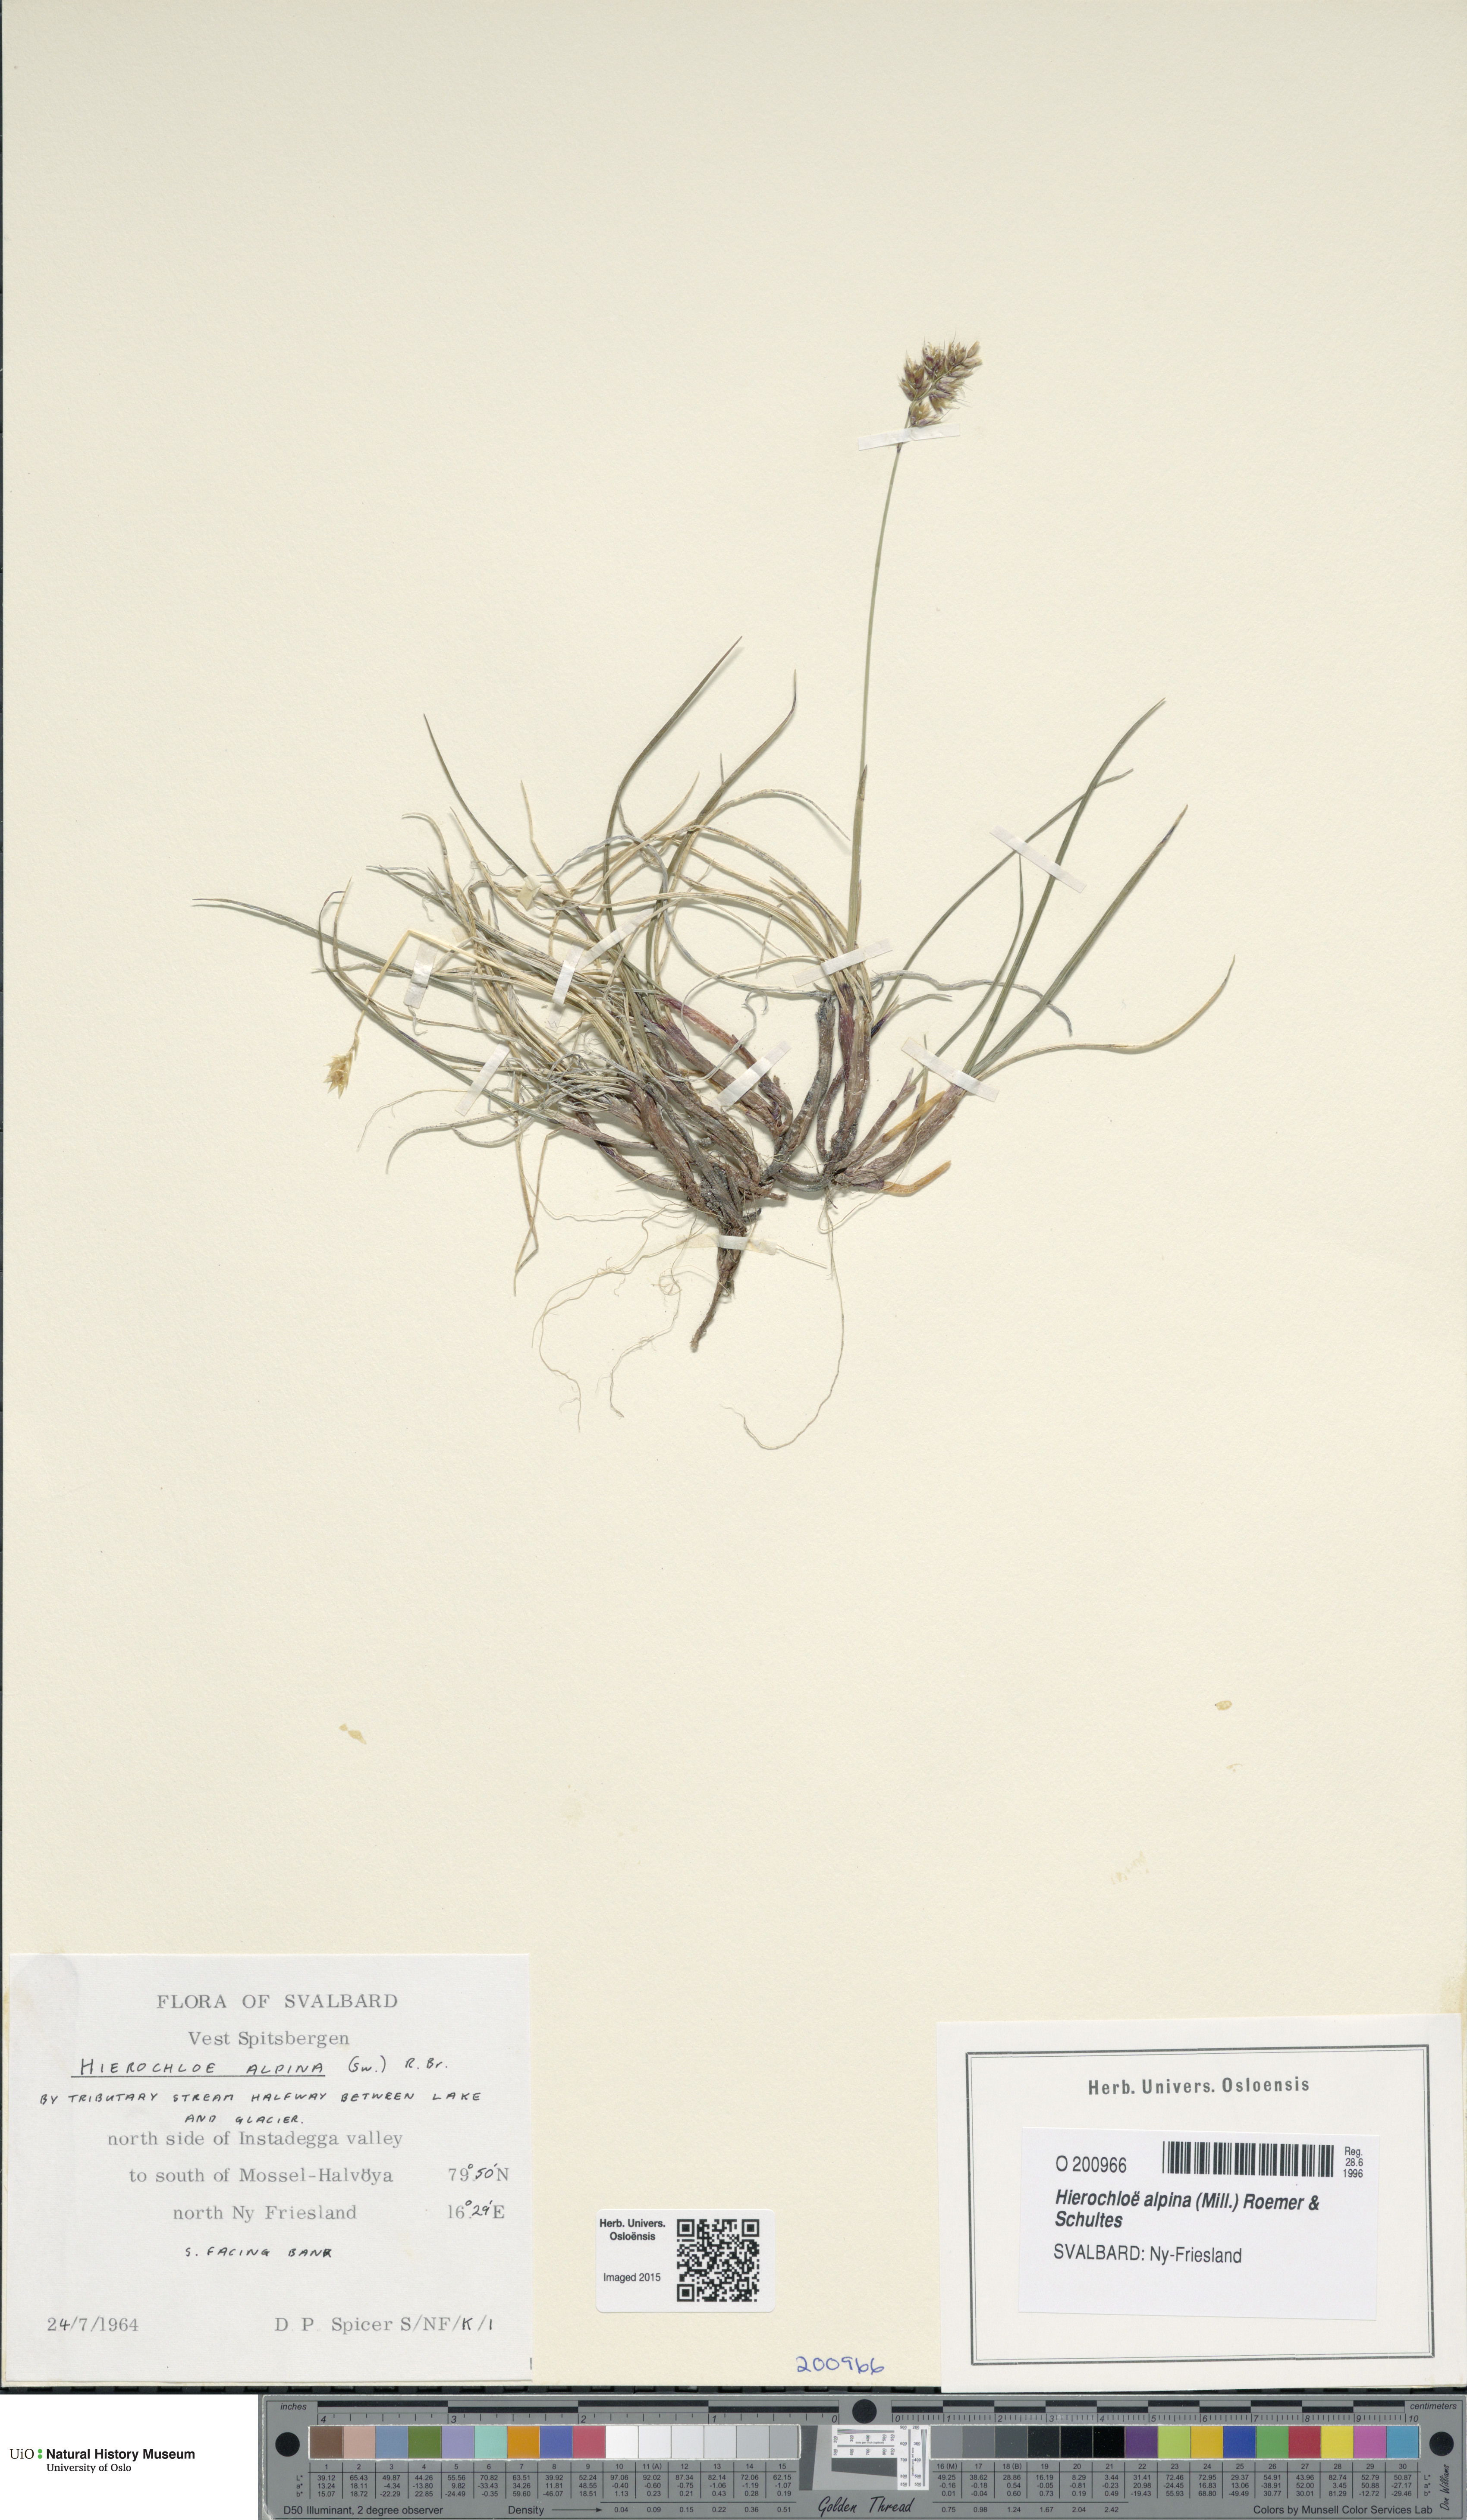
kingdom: Plantae
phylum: Tracheophyta
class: Liliopsida
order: Poales
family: Poaceae
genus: Anthoxanthum
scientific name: Anthoxanthum monticola
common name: Alpine sweetgrass
